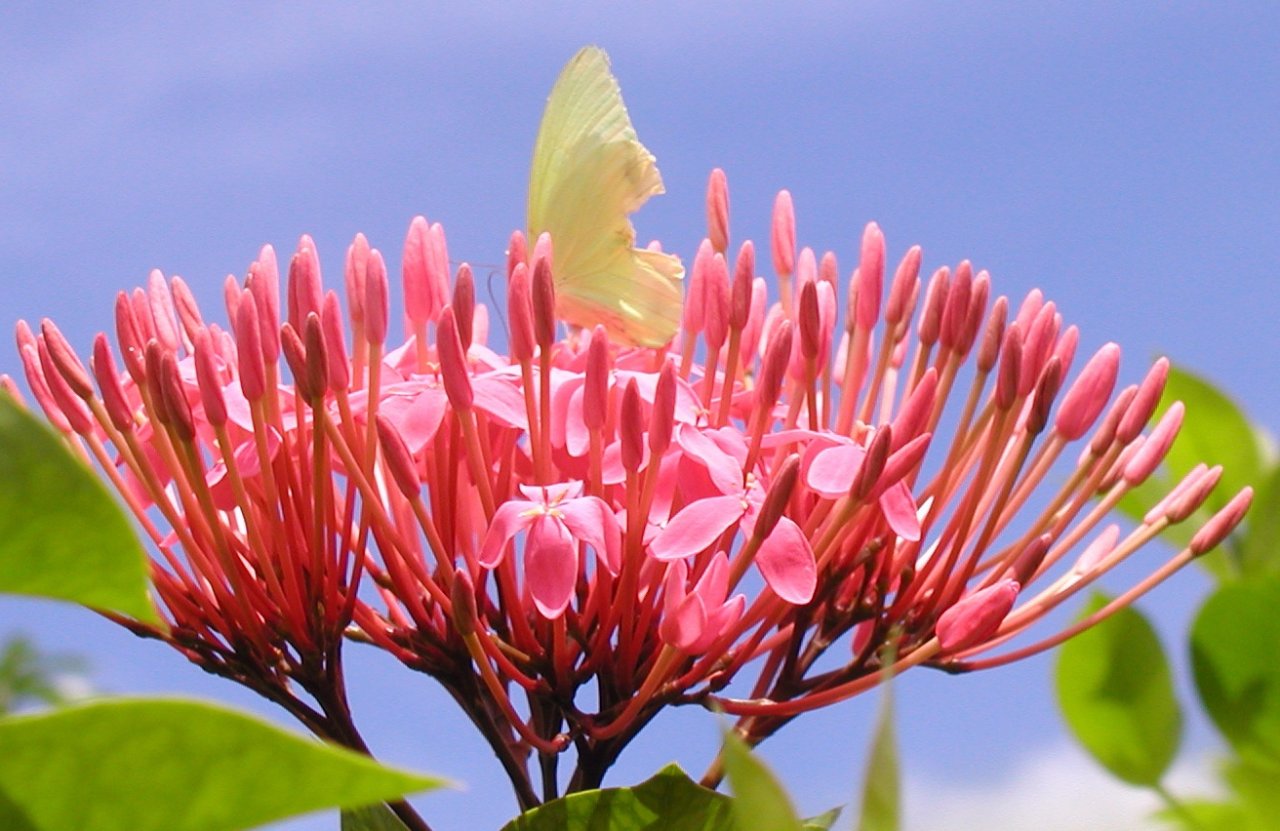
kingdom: Animalia
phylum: Arthropoda
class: Insecta
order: Lepidoptera
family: Pieridae
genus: Aphrissa
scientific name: Aphrissa statira
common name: Statira Sulphur
